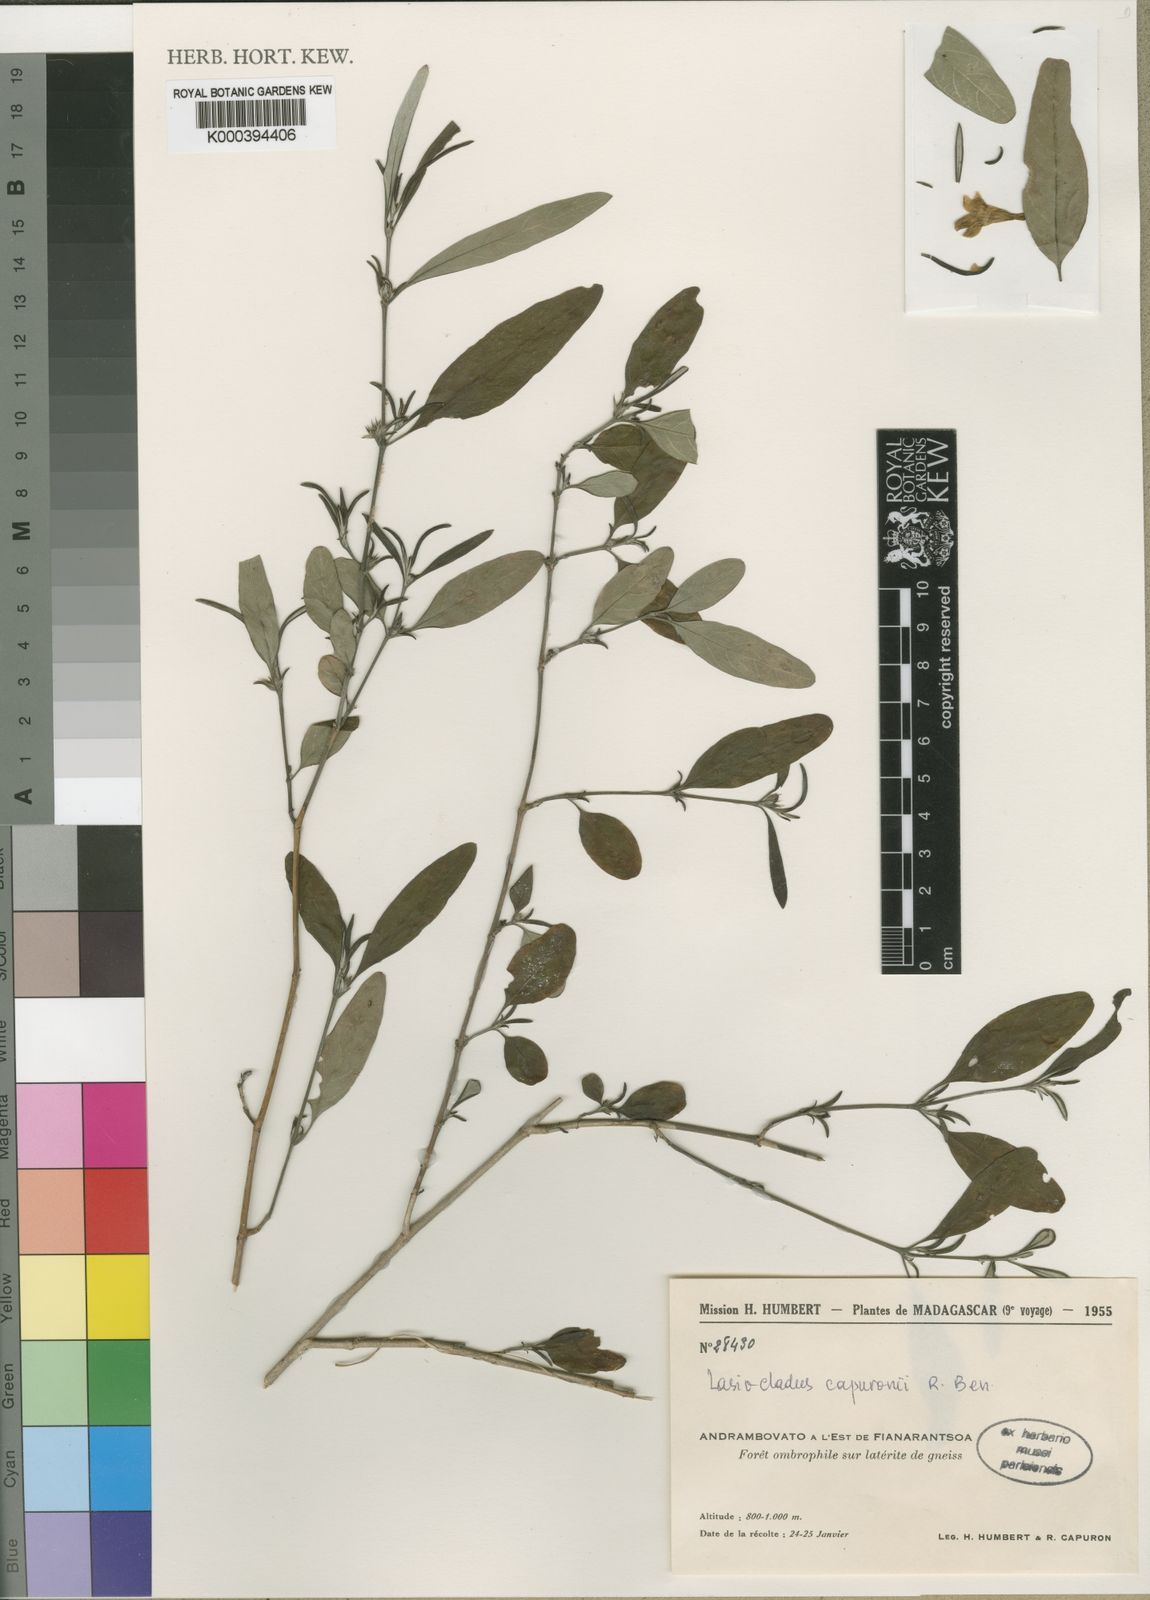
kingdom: Plantae
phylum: Tracheophyta
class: Magnoliopsida
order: Lamiales
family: Acanthaceae
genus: Lasiocladus
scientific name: Lasiocladus capuronii
